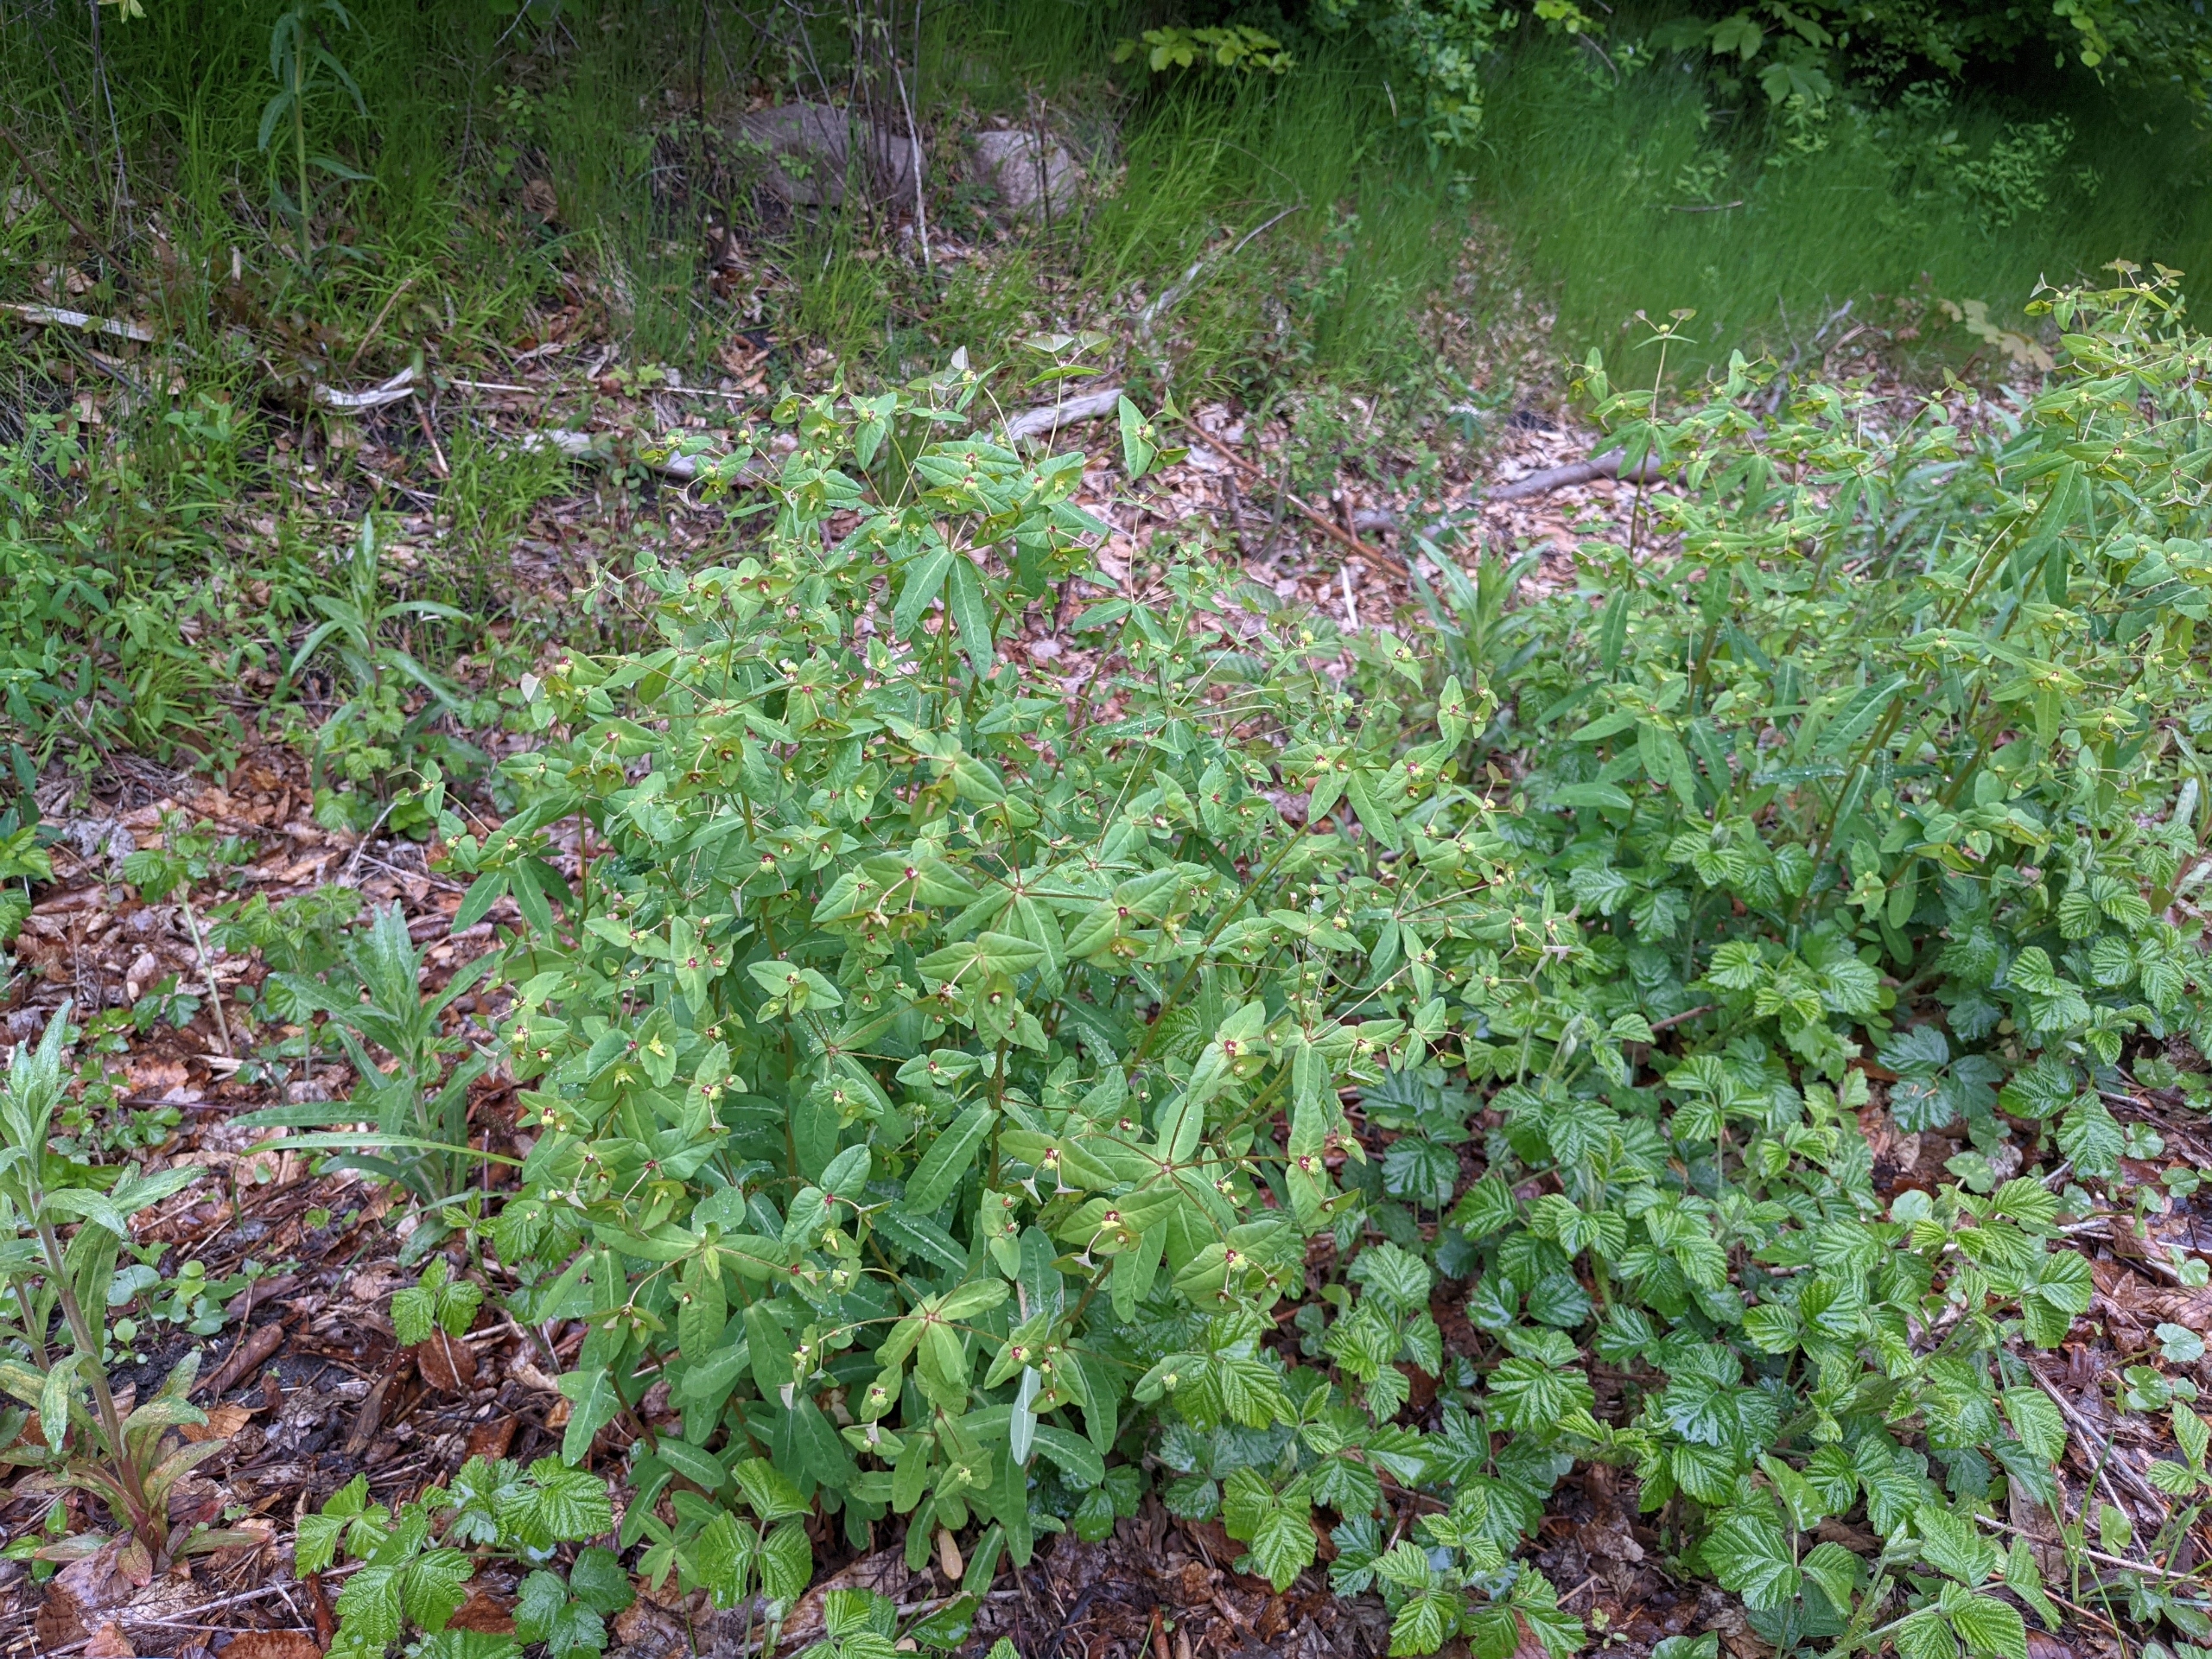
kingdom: Plantae
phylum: Tracheophyta
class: Magnoliopsida
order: Malpighiales
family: Euphorbiaceae
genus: Euphorbia
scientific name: Euphorbia dulcis
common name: Knold-vortemælk
